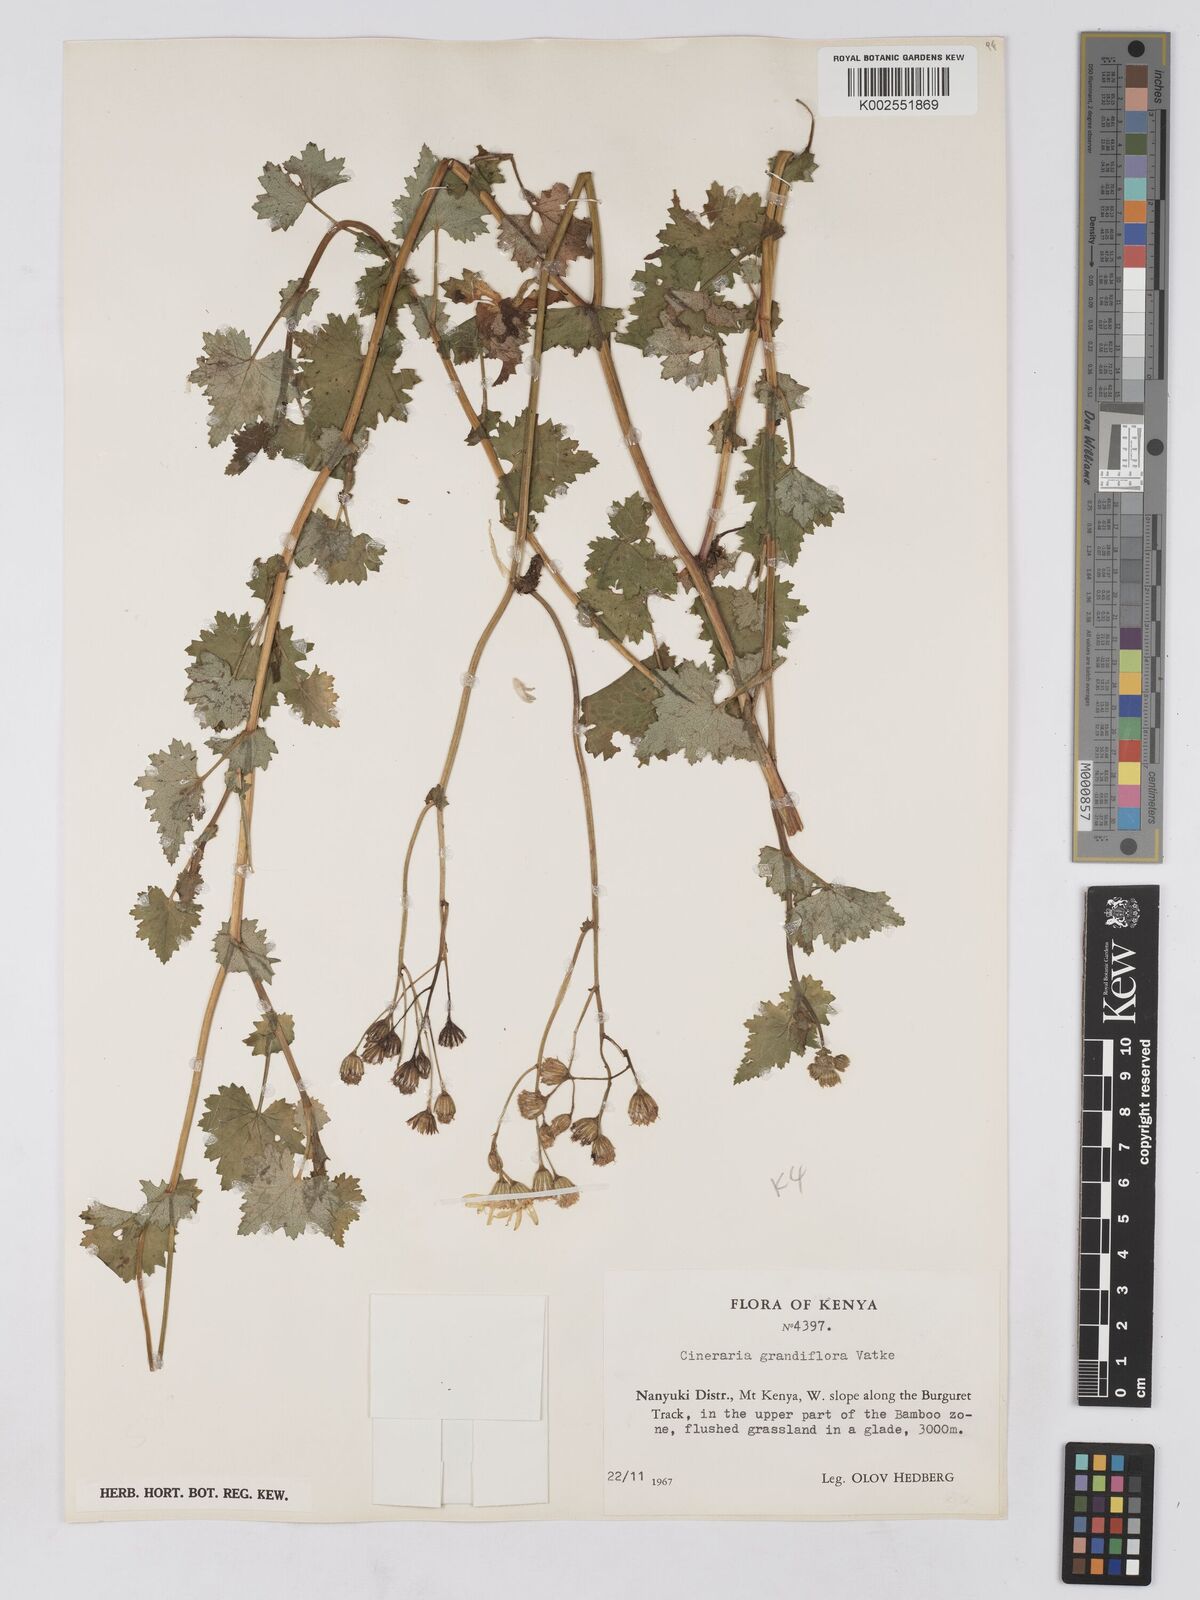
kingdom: Plantae
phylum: Tracheophyta
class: Magnoliopsida
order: Asterales
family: Asteraceae
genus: Cineraria
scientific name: Cineraria deltoidea
